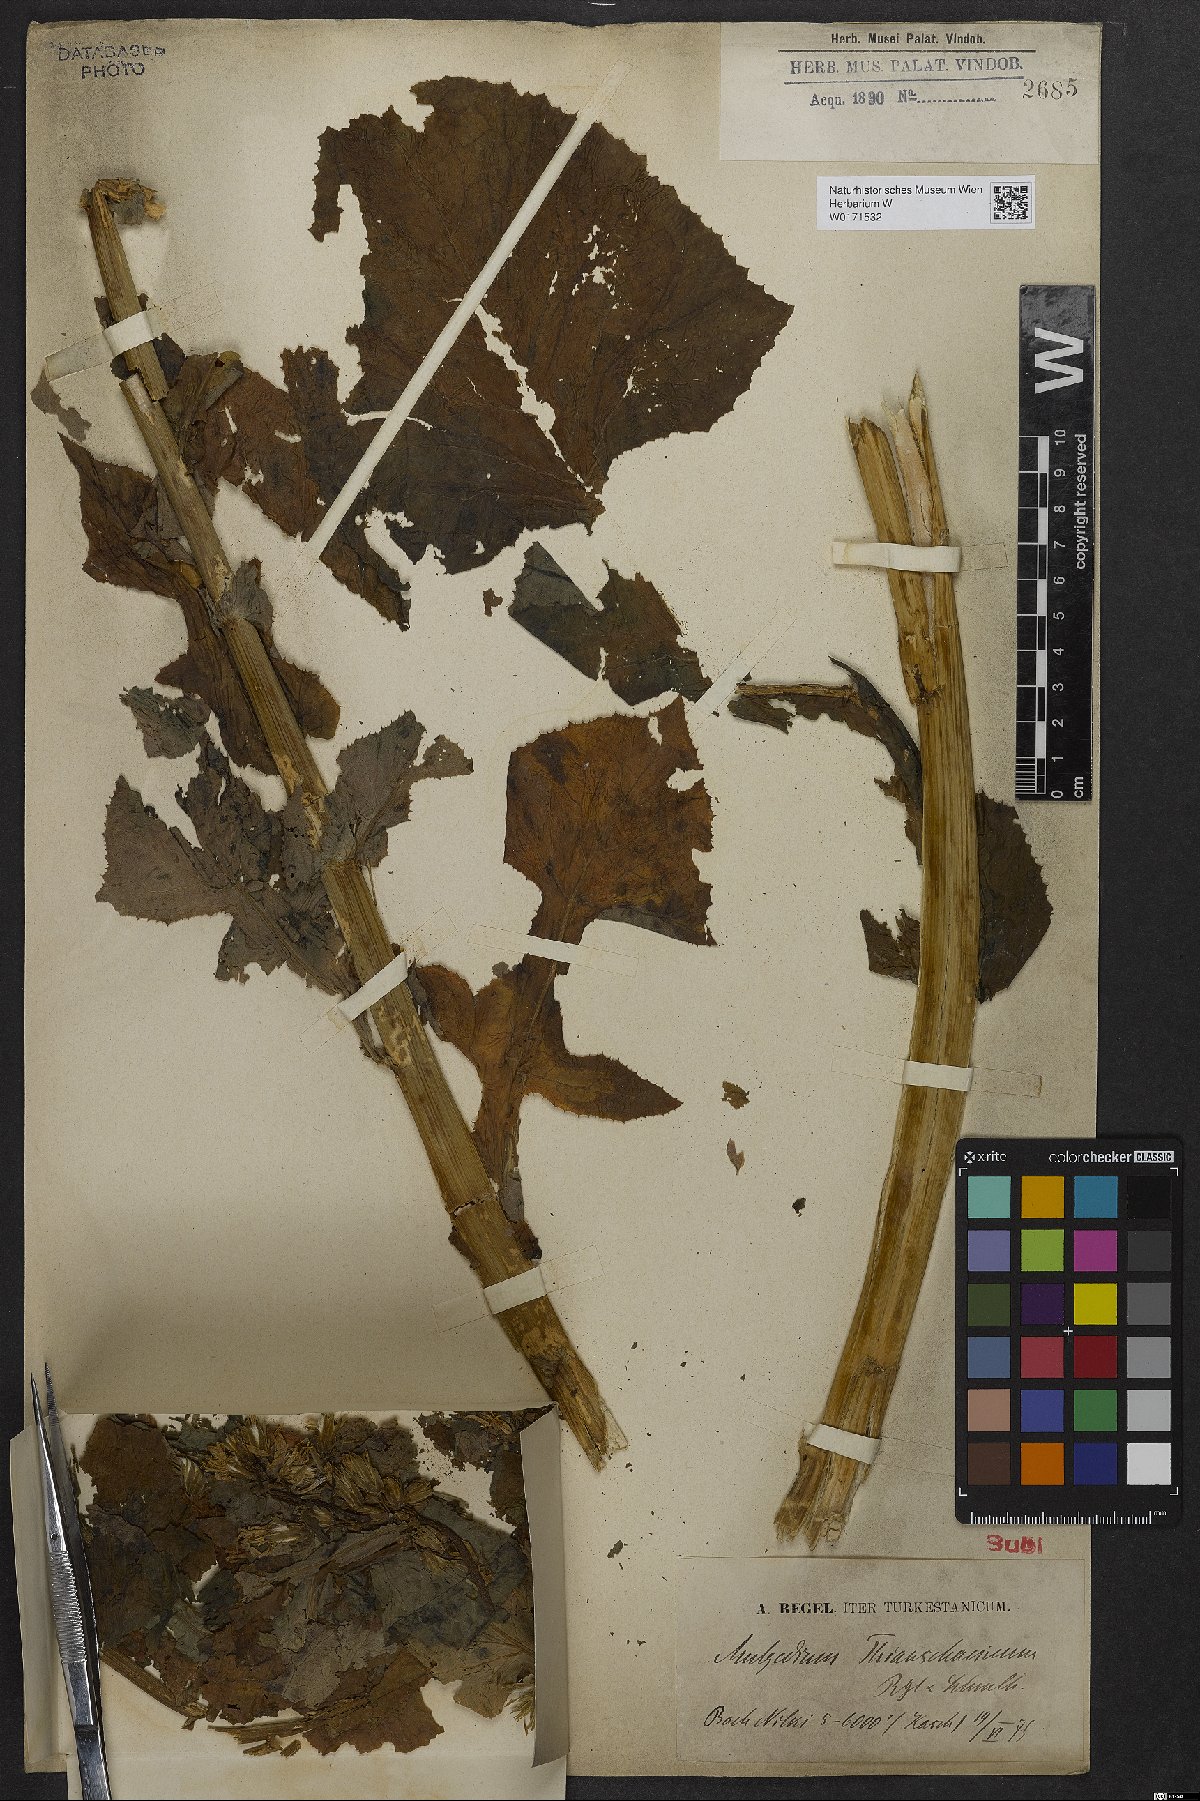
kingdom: Plantae
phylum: Tracheophyta
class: Magnoliopsida
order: Asterales
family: Asteraceae
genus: Cicerbita
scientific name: Cicerbita thianschanica
